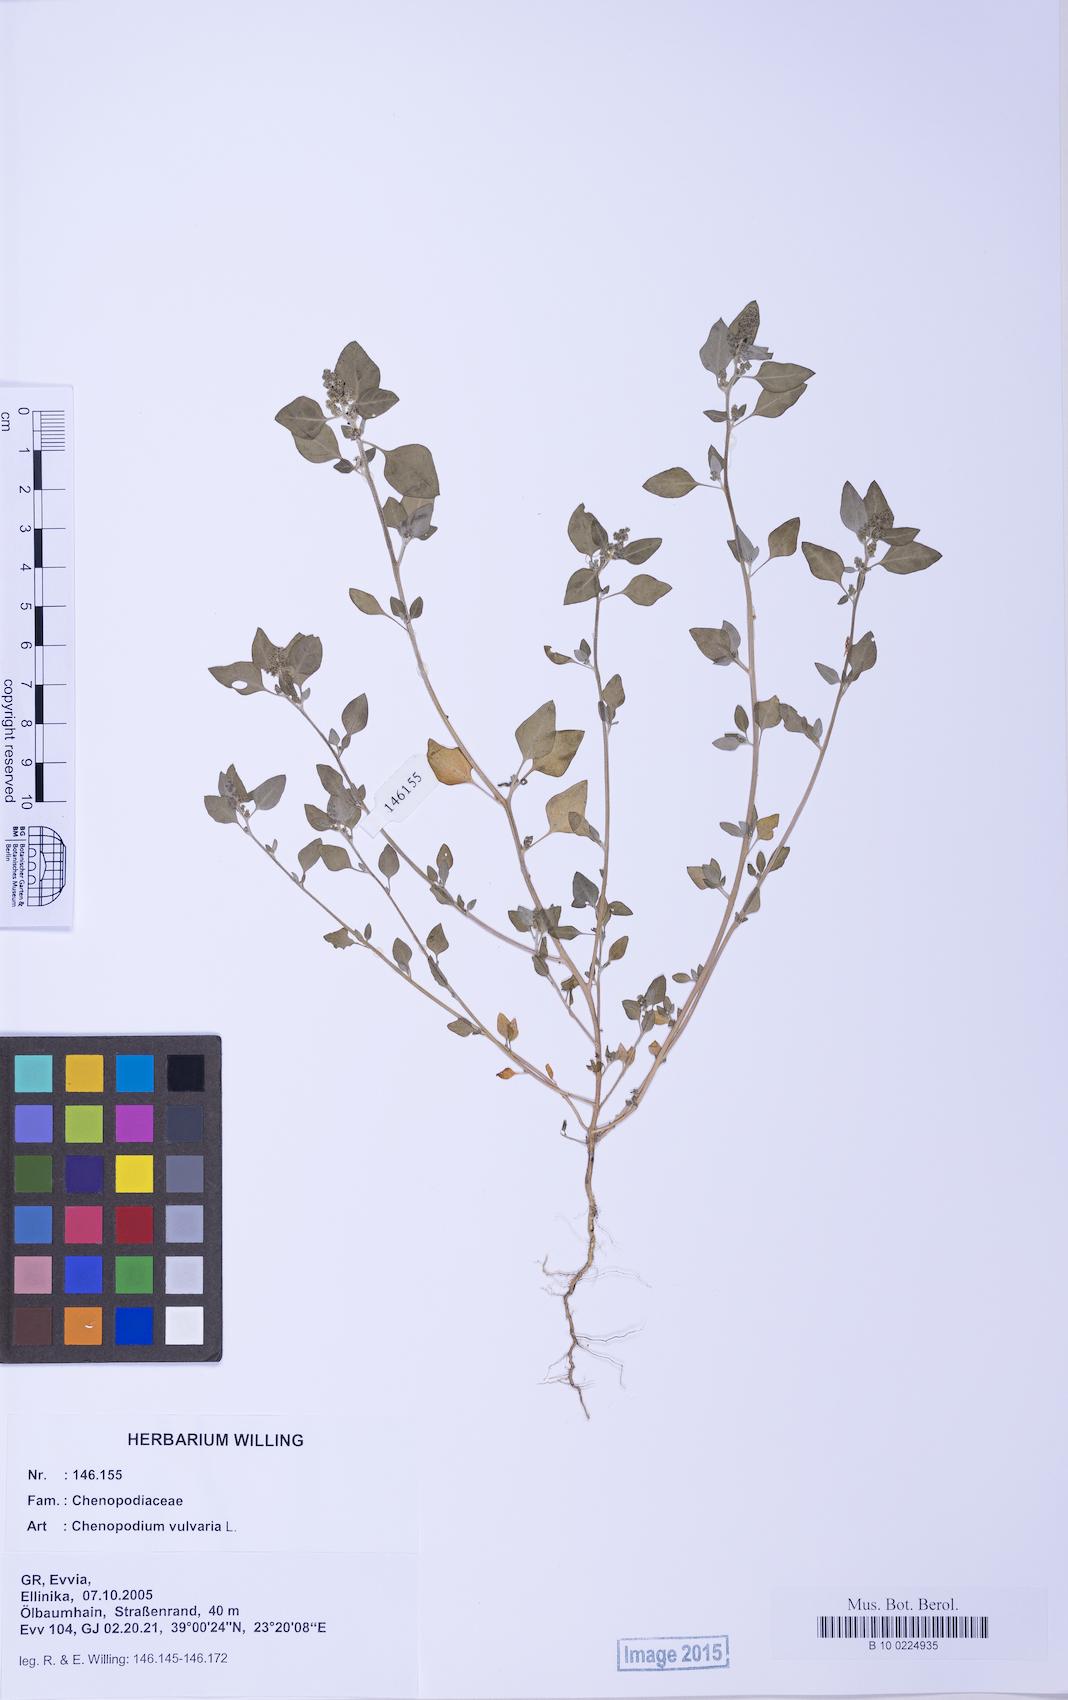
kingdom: Plantae
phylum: Tracheophyta
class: Magnoliopsida
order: Caryophyllales
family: Amaranthaceae
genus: Chenopodium
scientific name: Chenopodium vulvaria
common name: Stinking goosefoot
